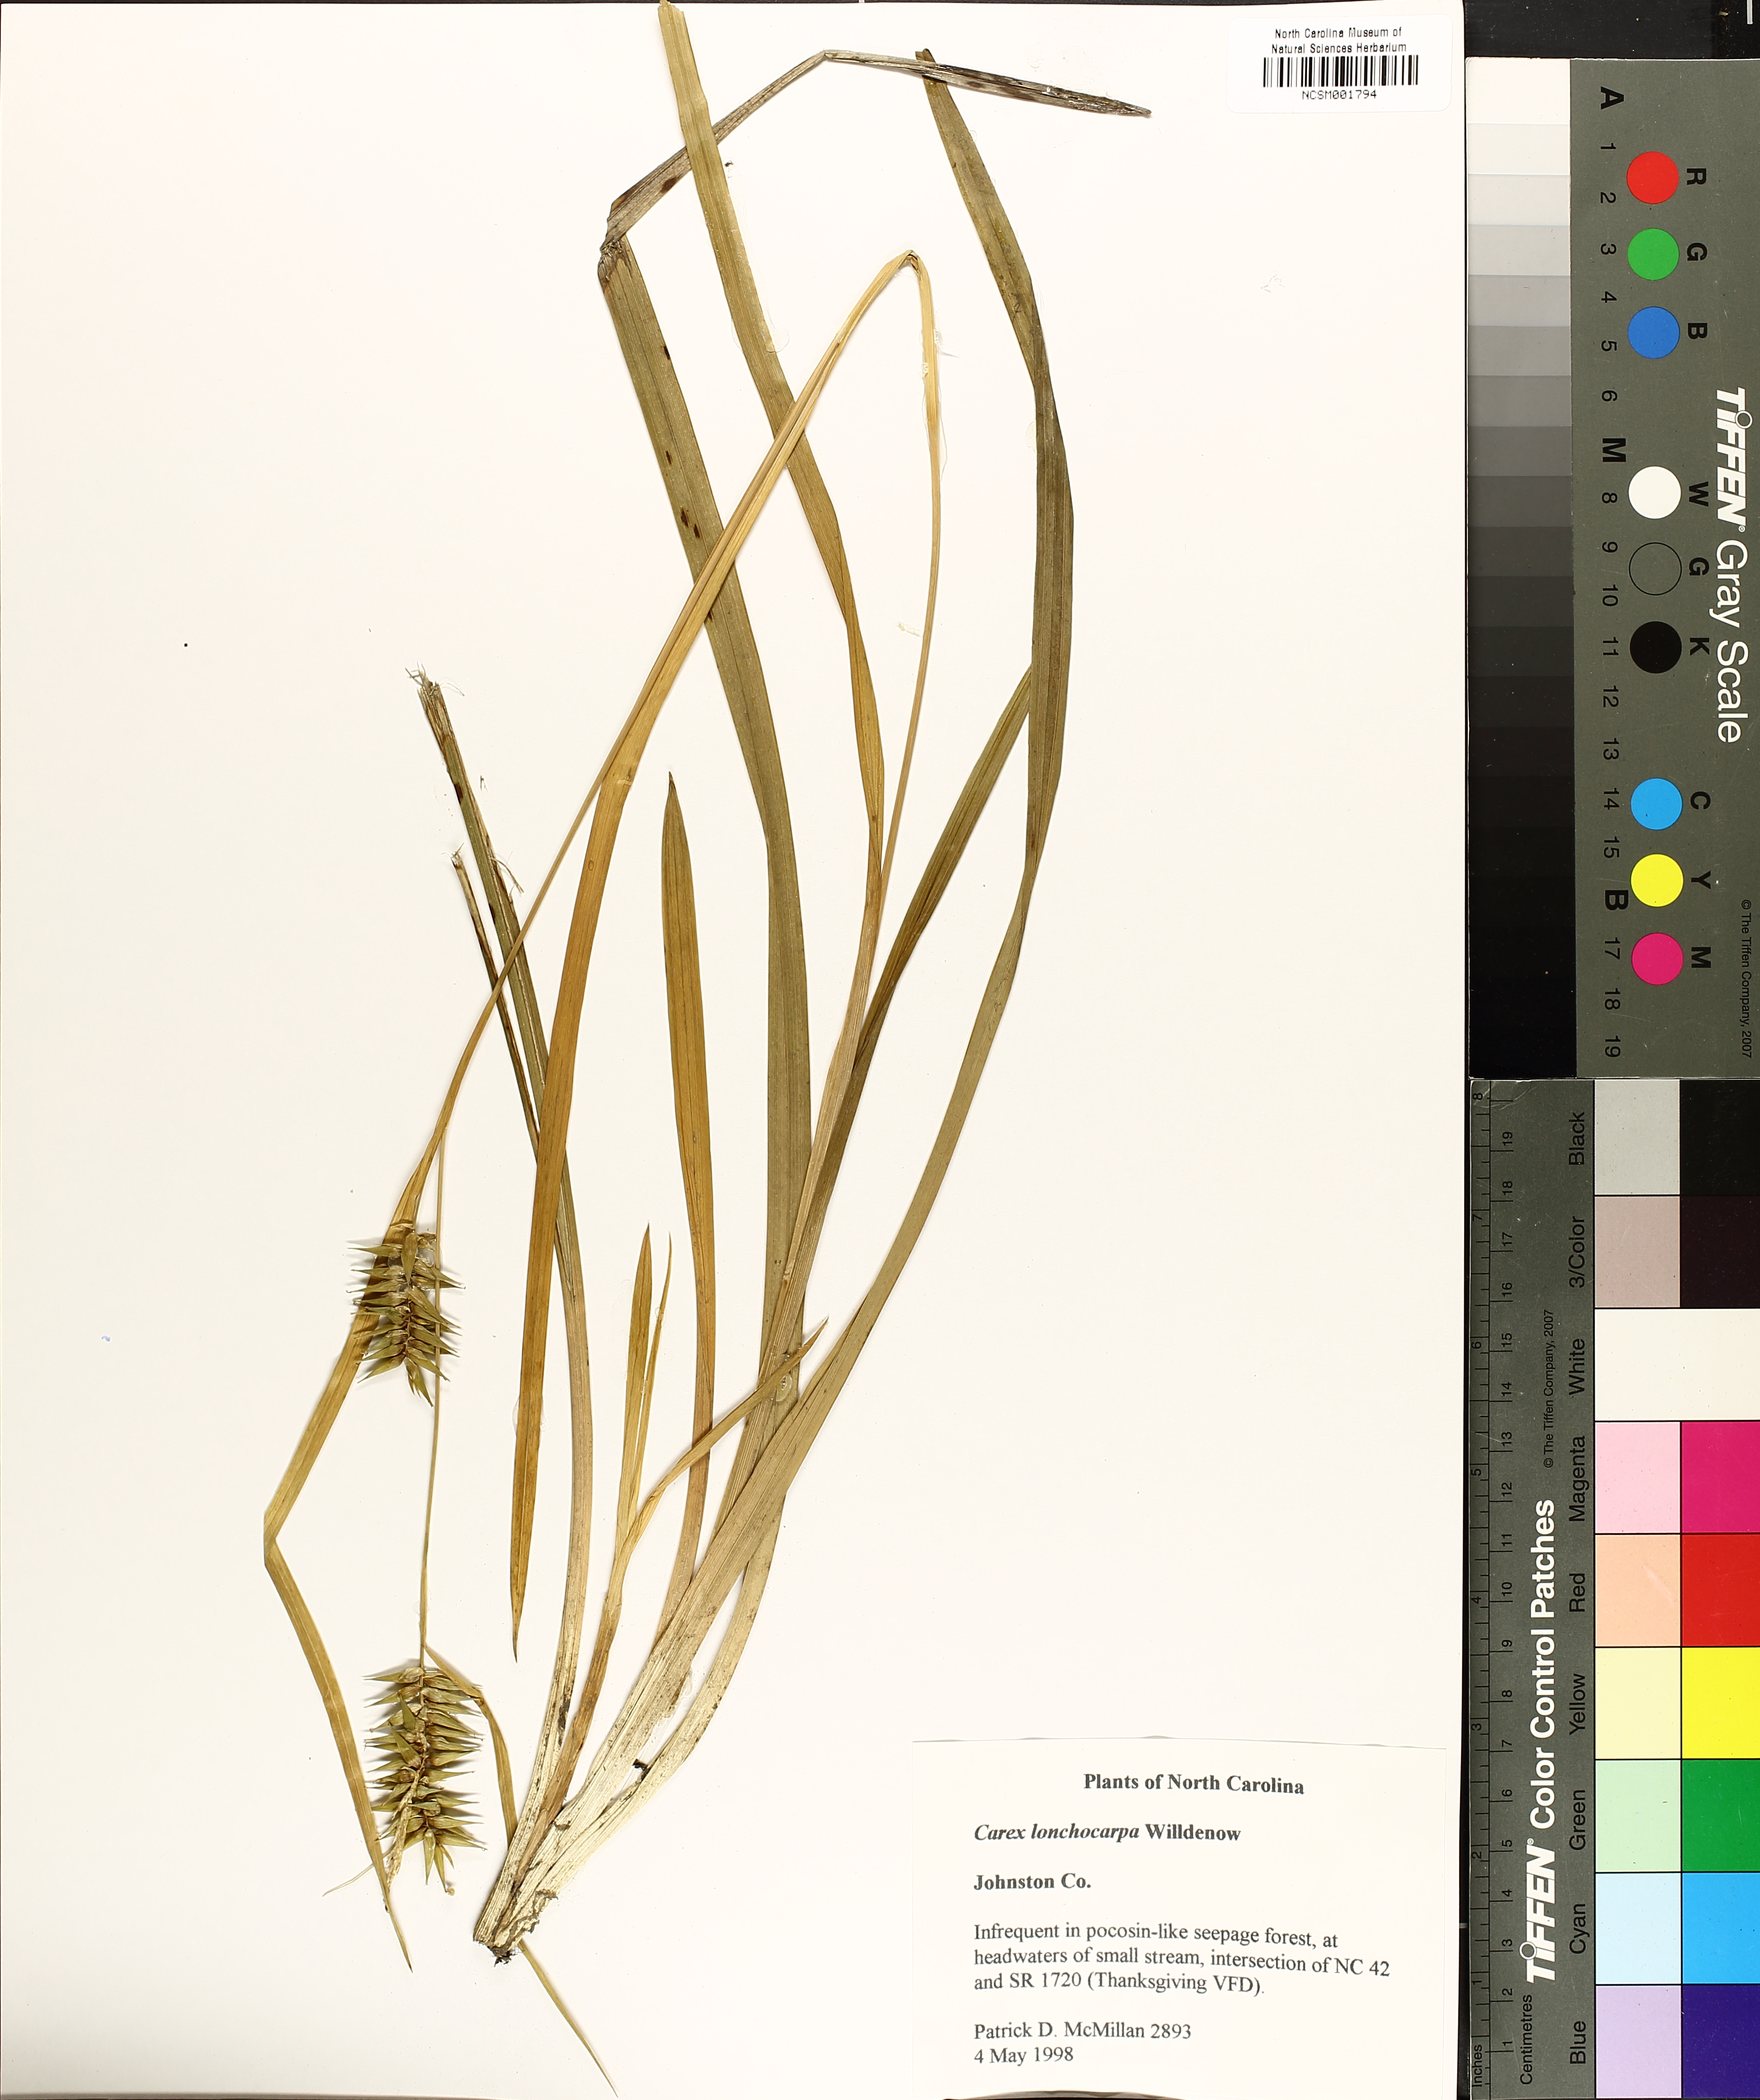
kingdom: Plantae
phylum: Tracheophyta
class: Liliopsida
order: Poales
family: Cyperaceae
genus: Carex
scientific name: Carex lonchocarpa
